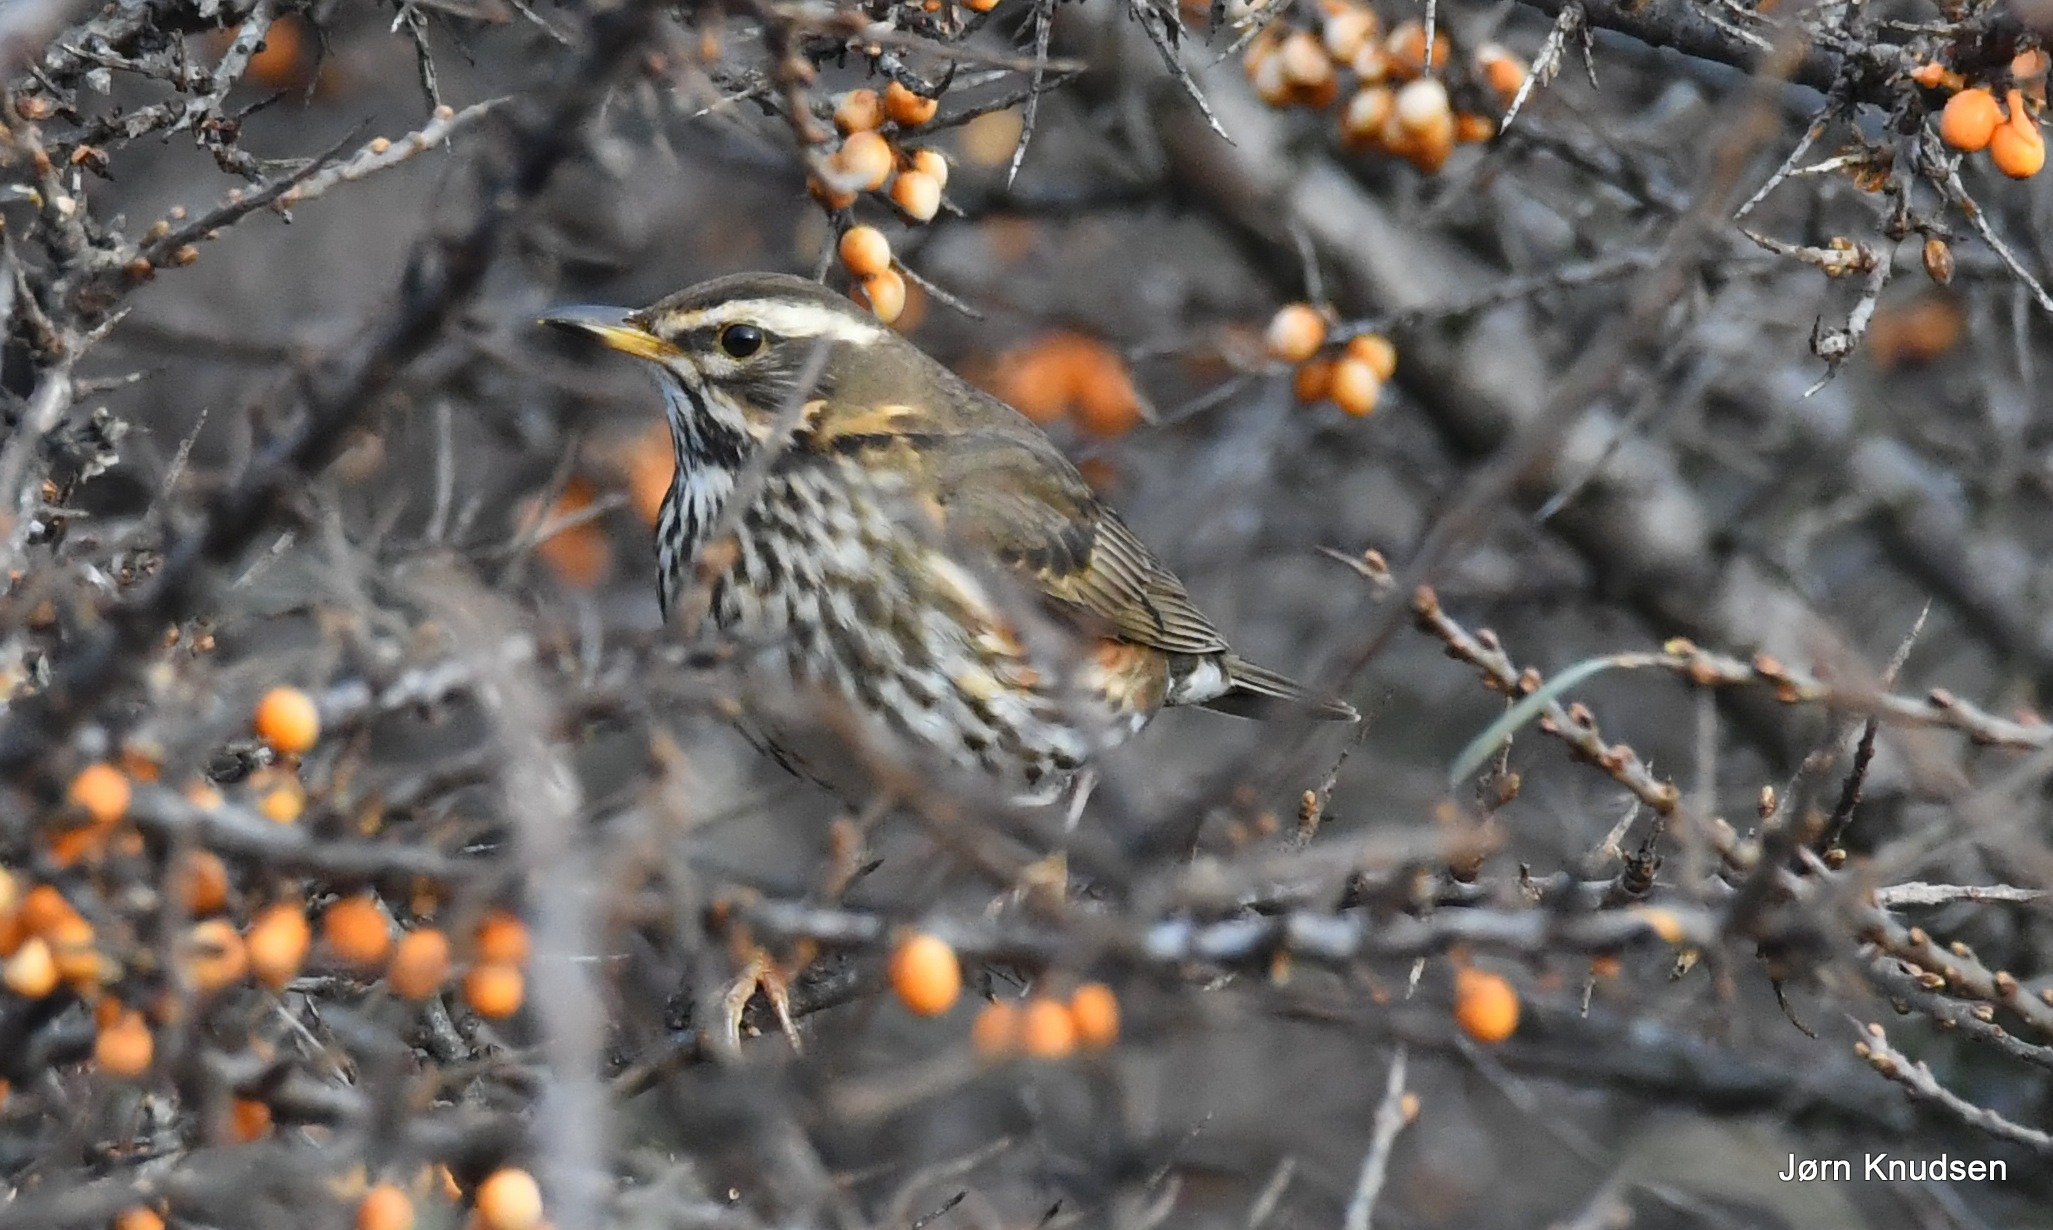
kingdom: Animalia
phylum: Chordata
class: Aves
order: Passeriformes
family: Turdidae
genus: Turdus
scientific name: Turdus iliacus
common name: Vindrossel
